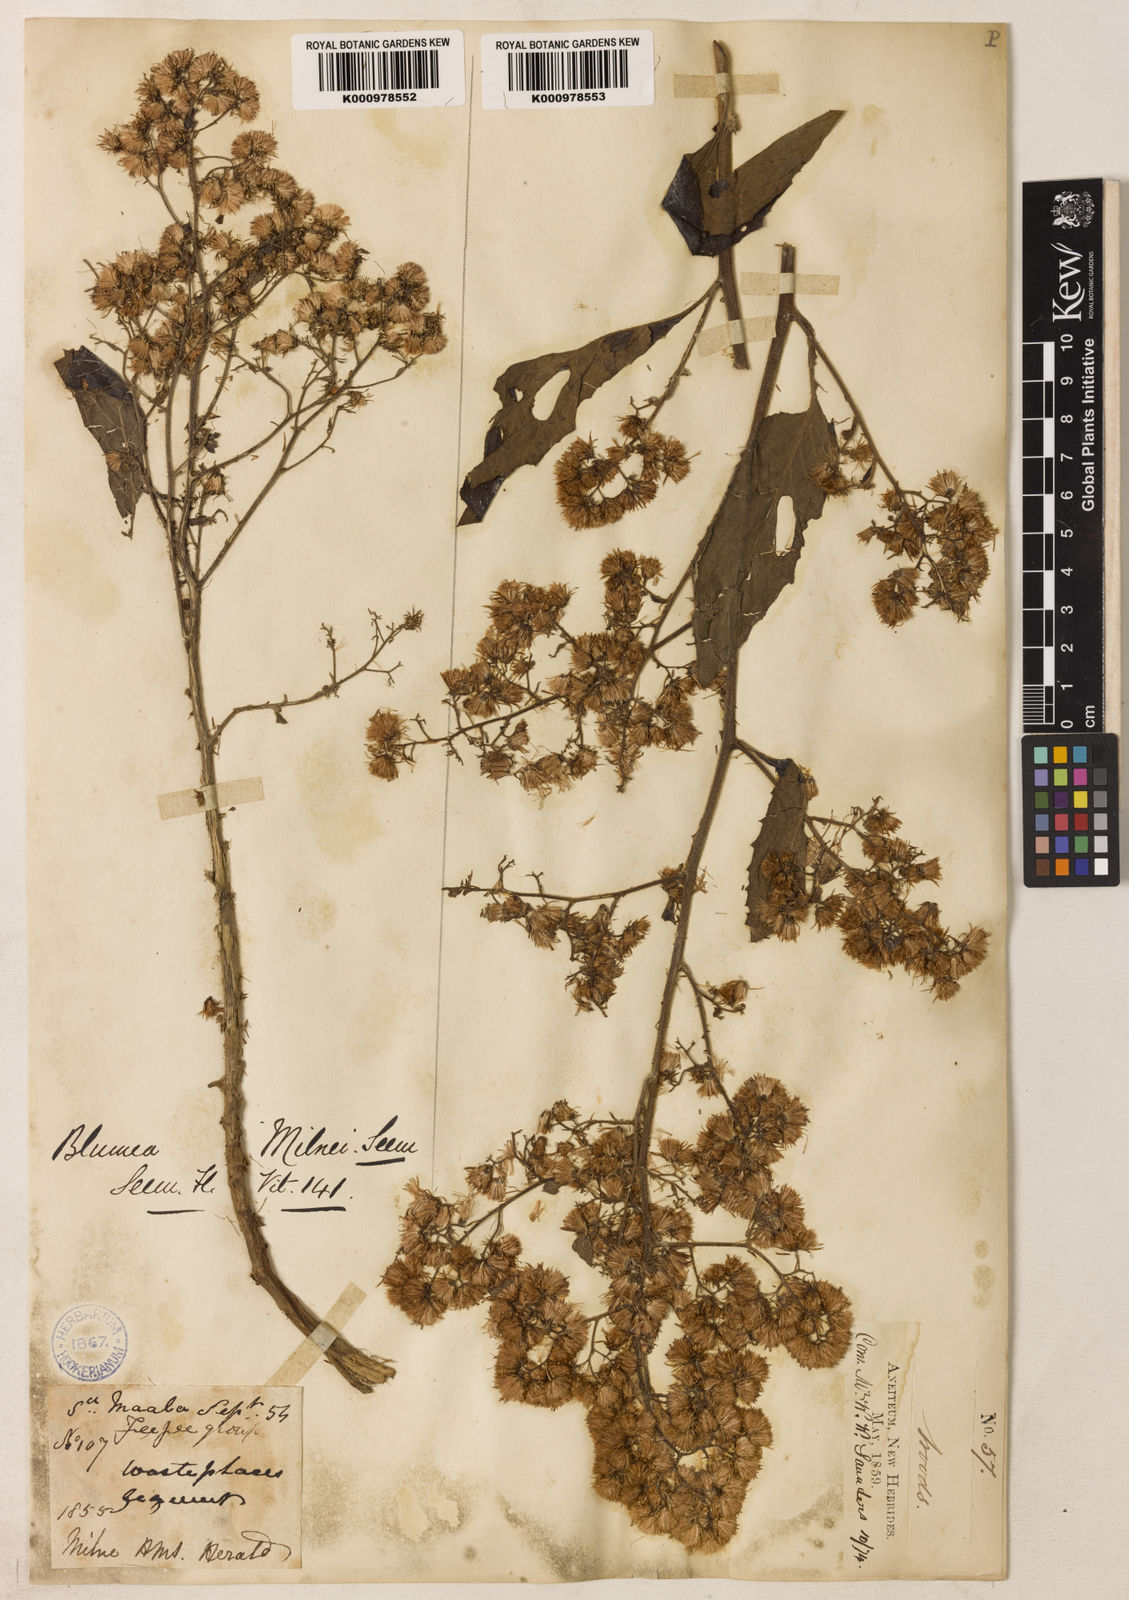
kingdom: Plantae
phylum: Tracheophyta
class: Magnoliopsida
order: Asterales
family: Asteraceae
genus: Blumea
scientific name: Blumea milnei
